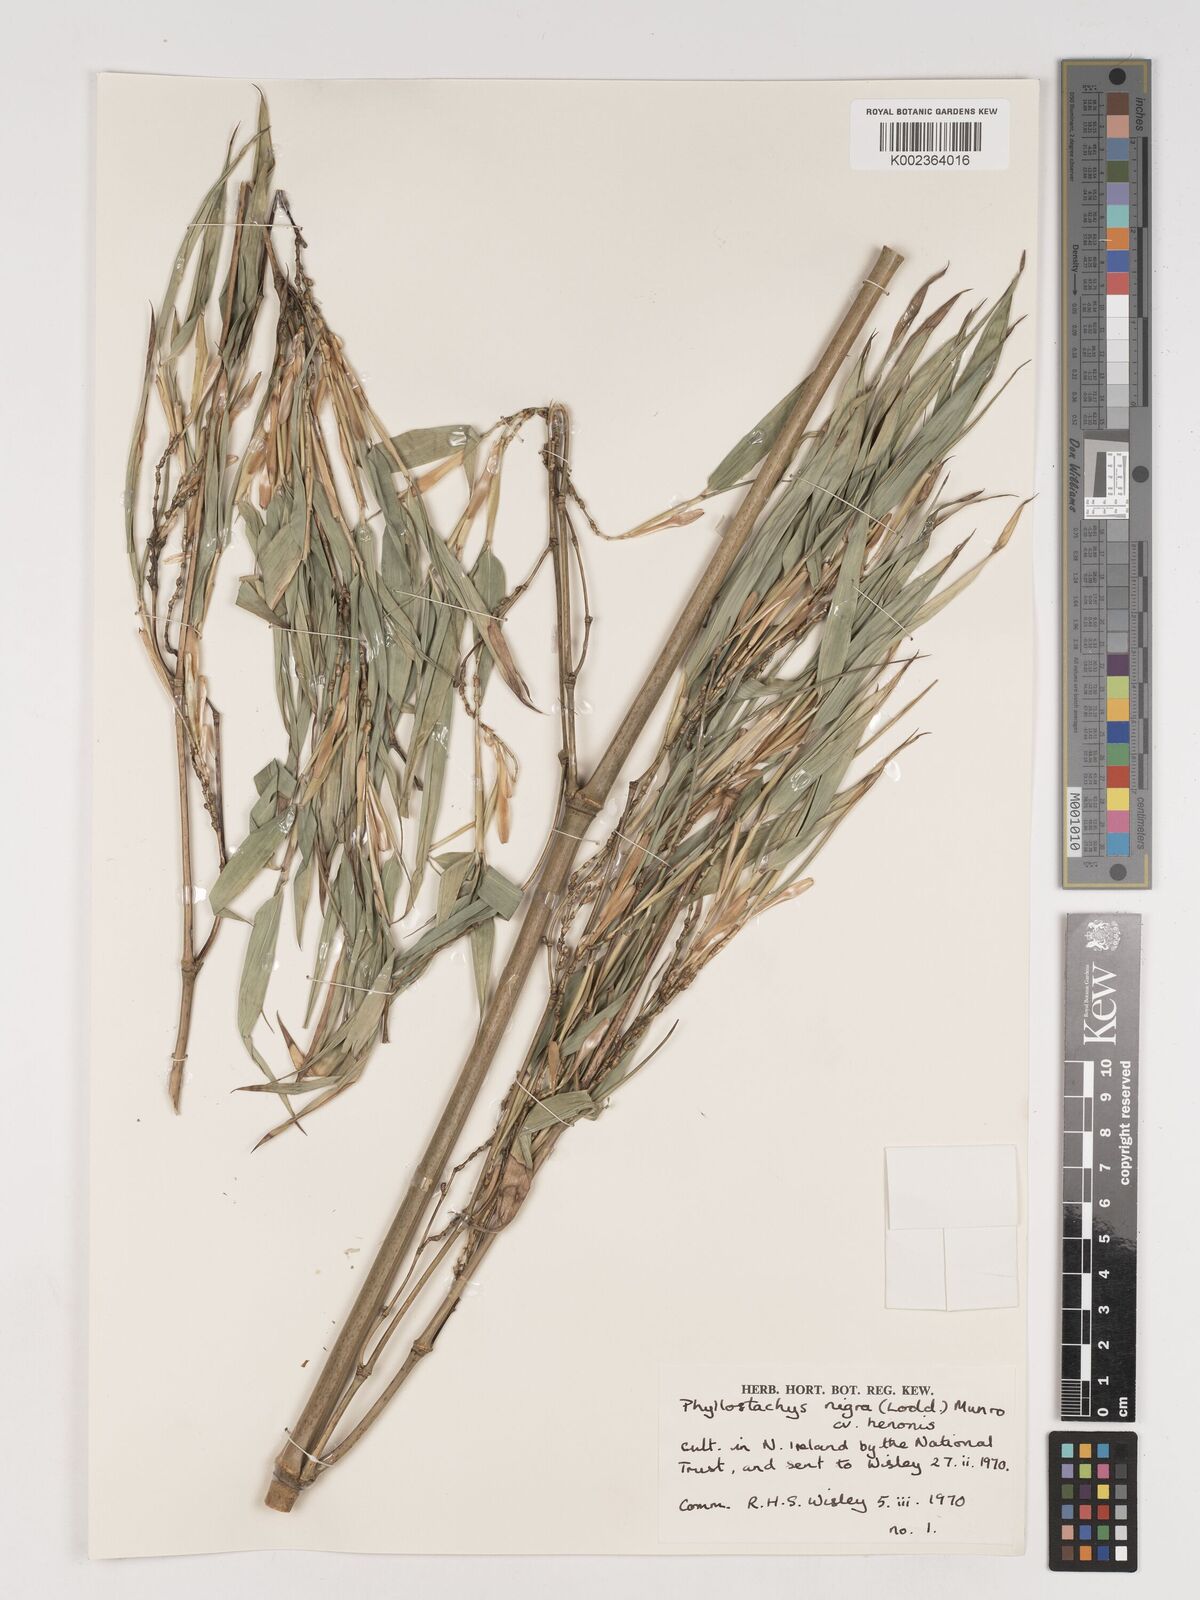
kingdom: Plantae
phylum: Tracheophyta
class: Liliopsida
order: Poales
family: Poaceae
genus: Phyllostachys
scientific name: Phyllostachys nigra
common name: Black bamboo
